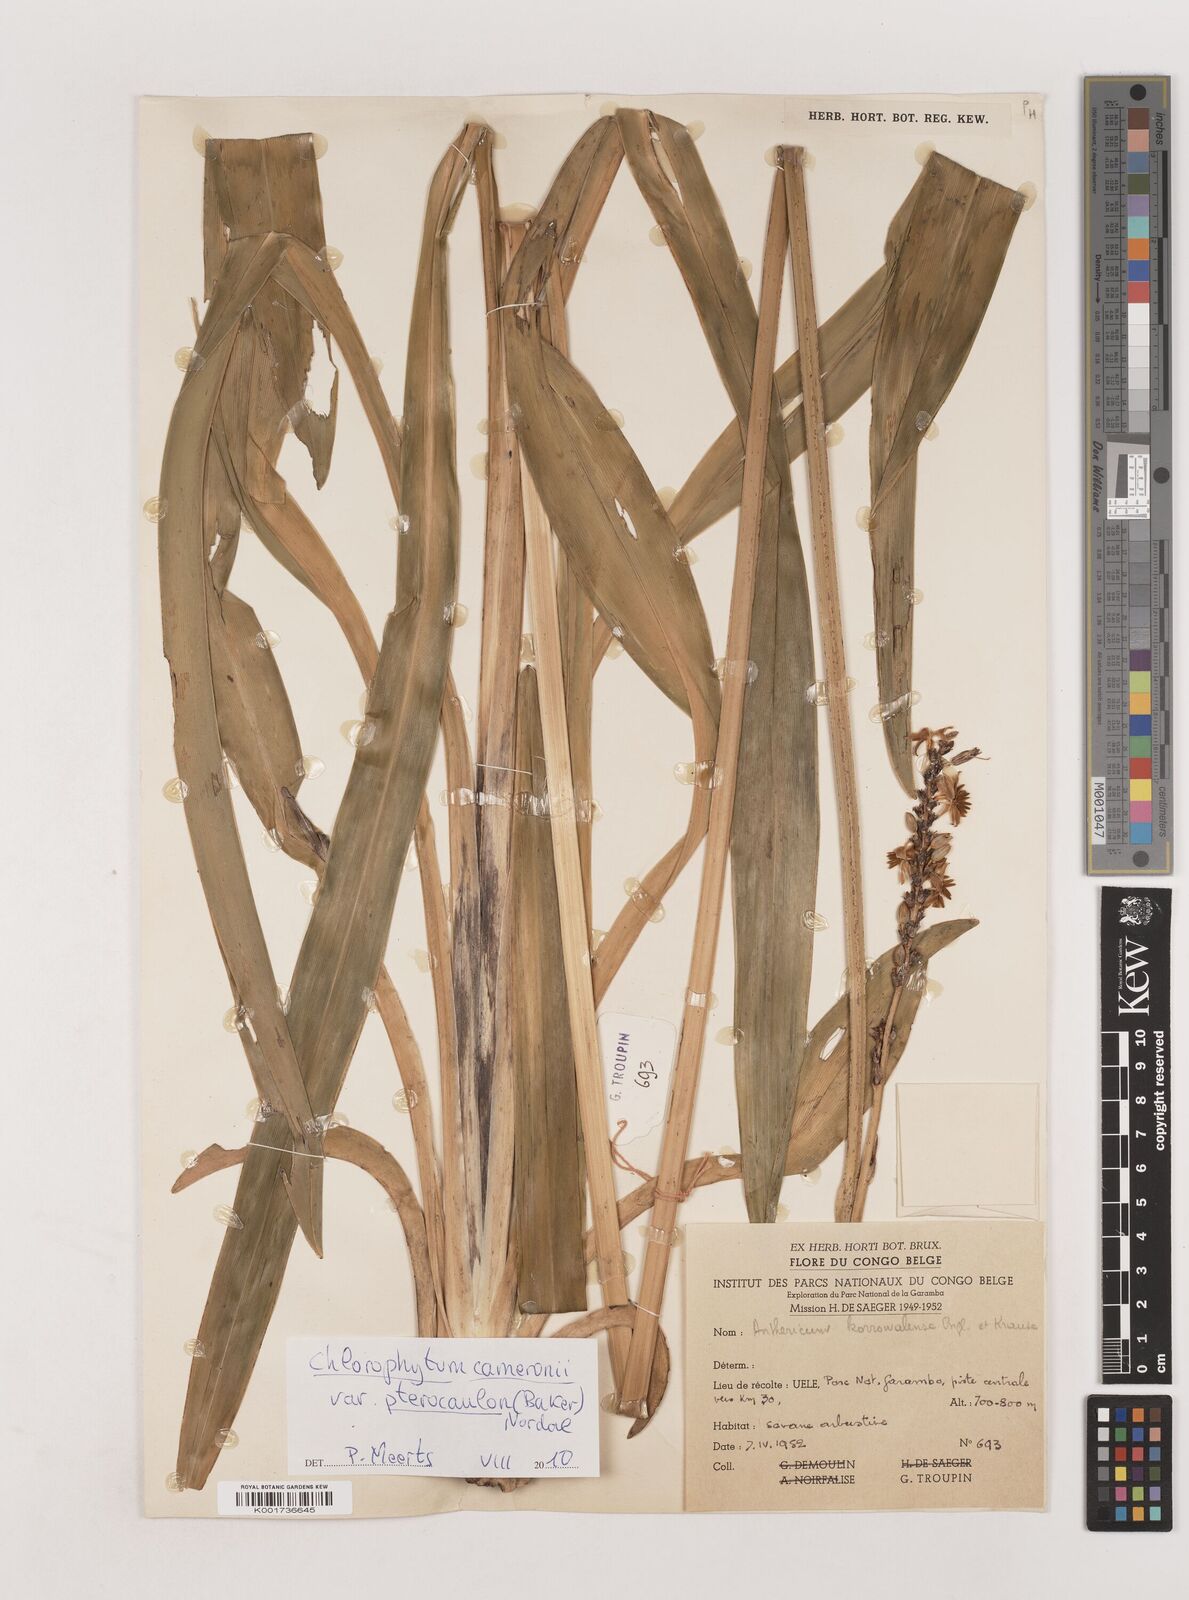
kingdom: Plantae
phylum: Tracheophyta
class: Liliopsida
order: Asparagales
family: Asparagaceae
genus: Chlorophytum
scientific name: Chlorophytum cameronii
